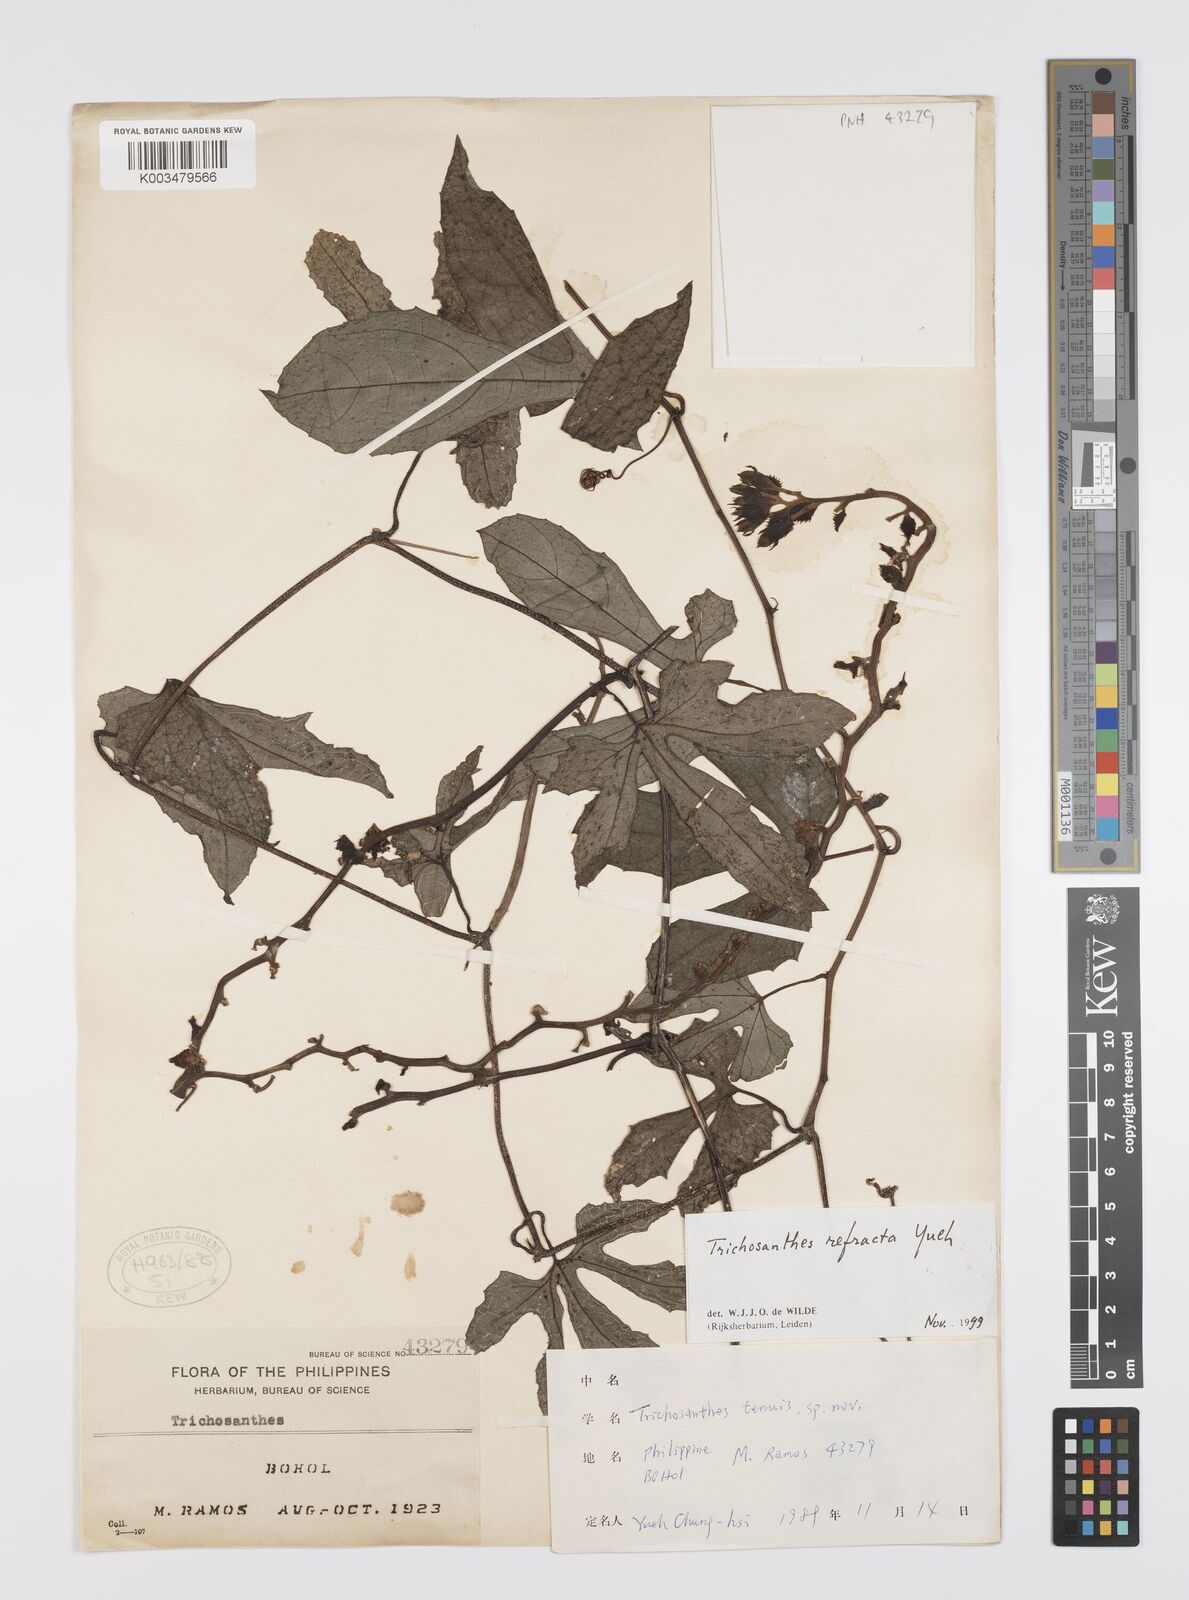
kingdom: Plantae
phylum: Tracheophyta
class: Magnoliopsida
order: Cucurbitales
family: Cucurbitaceae
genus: Trichosanthes
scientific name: Trichosanthes refracta
